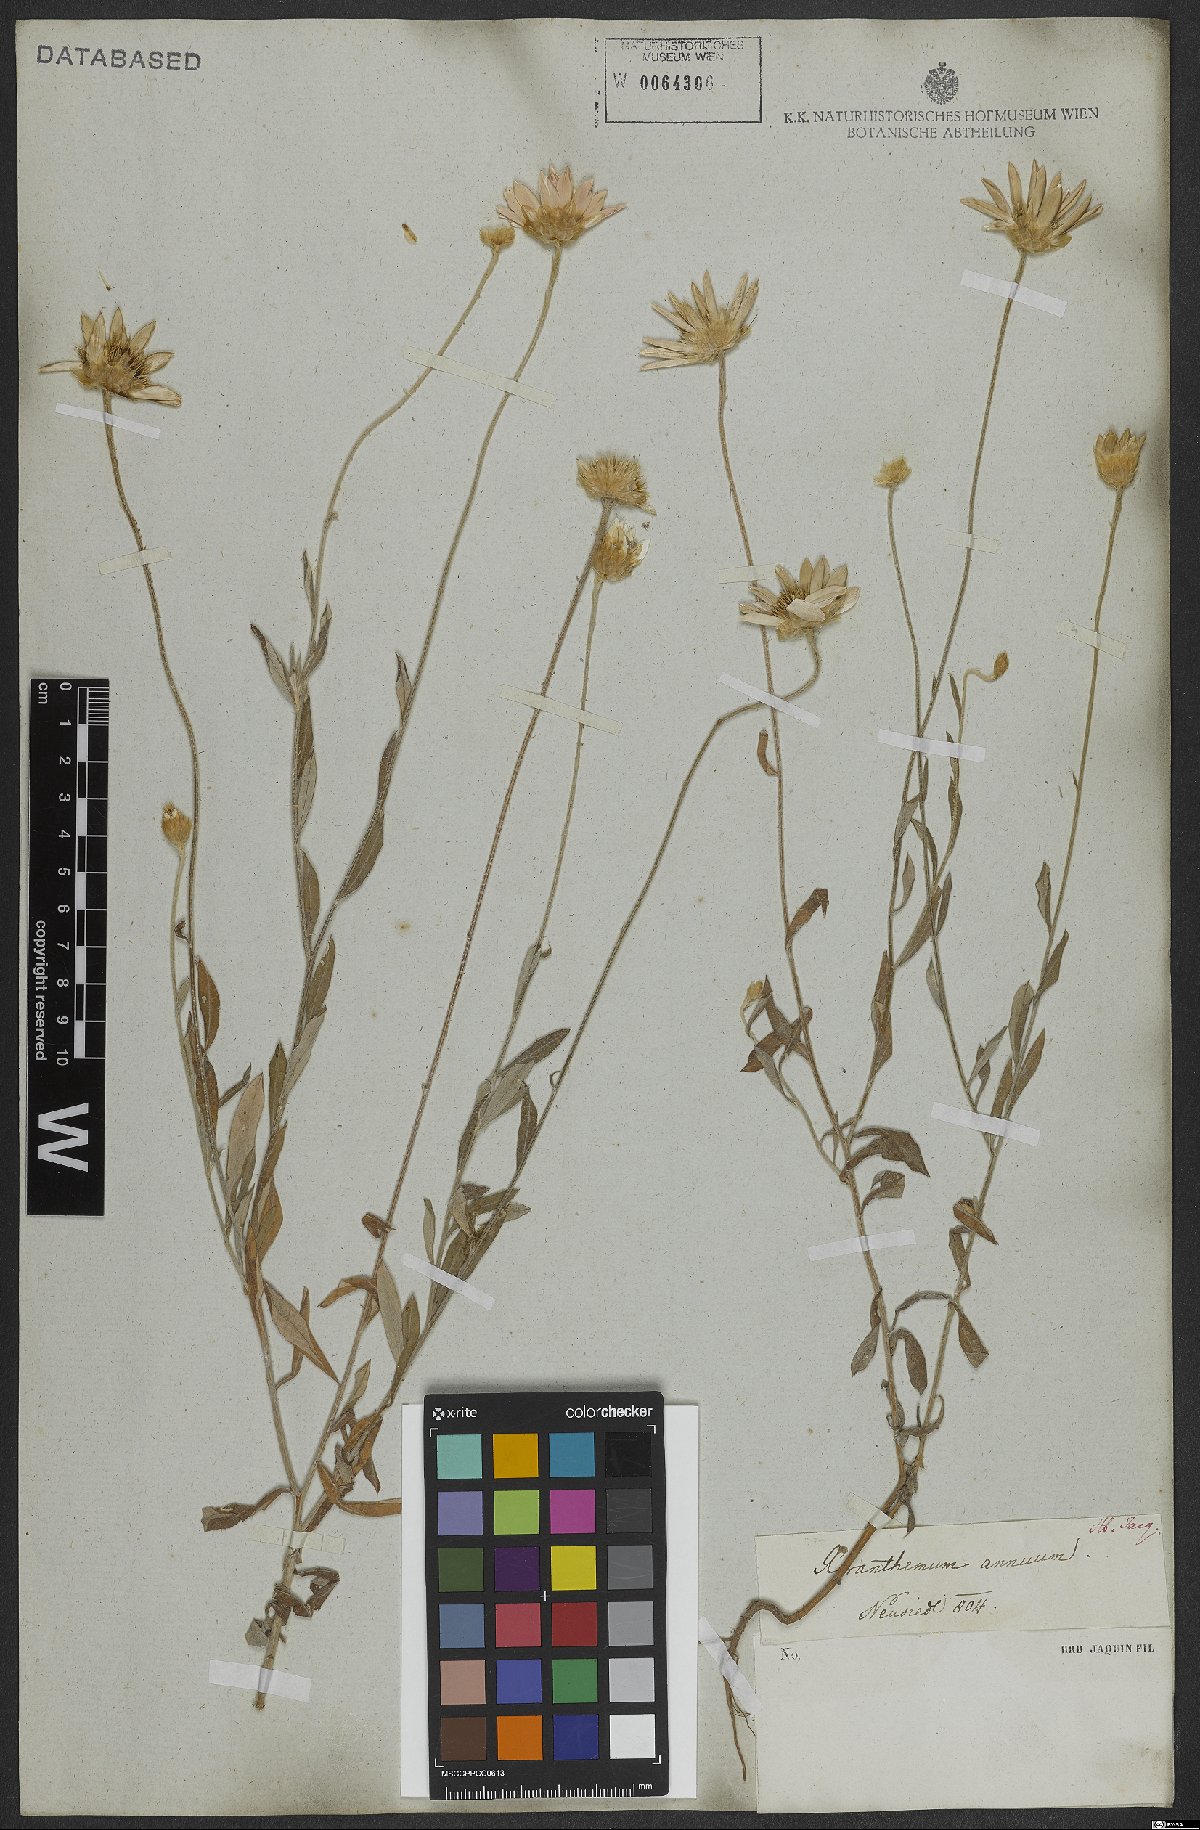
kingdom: Plantae
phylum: Tracheophyta
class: Magnoliopsida
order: Asterales
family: Asteraceae
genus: Xeranthemum
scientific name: Xeranthemum annuum
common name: Immortelle
